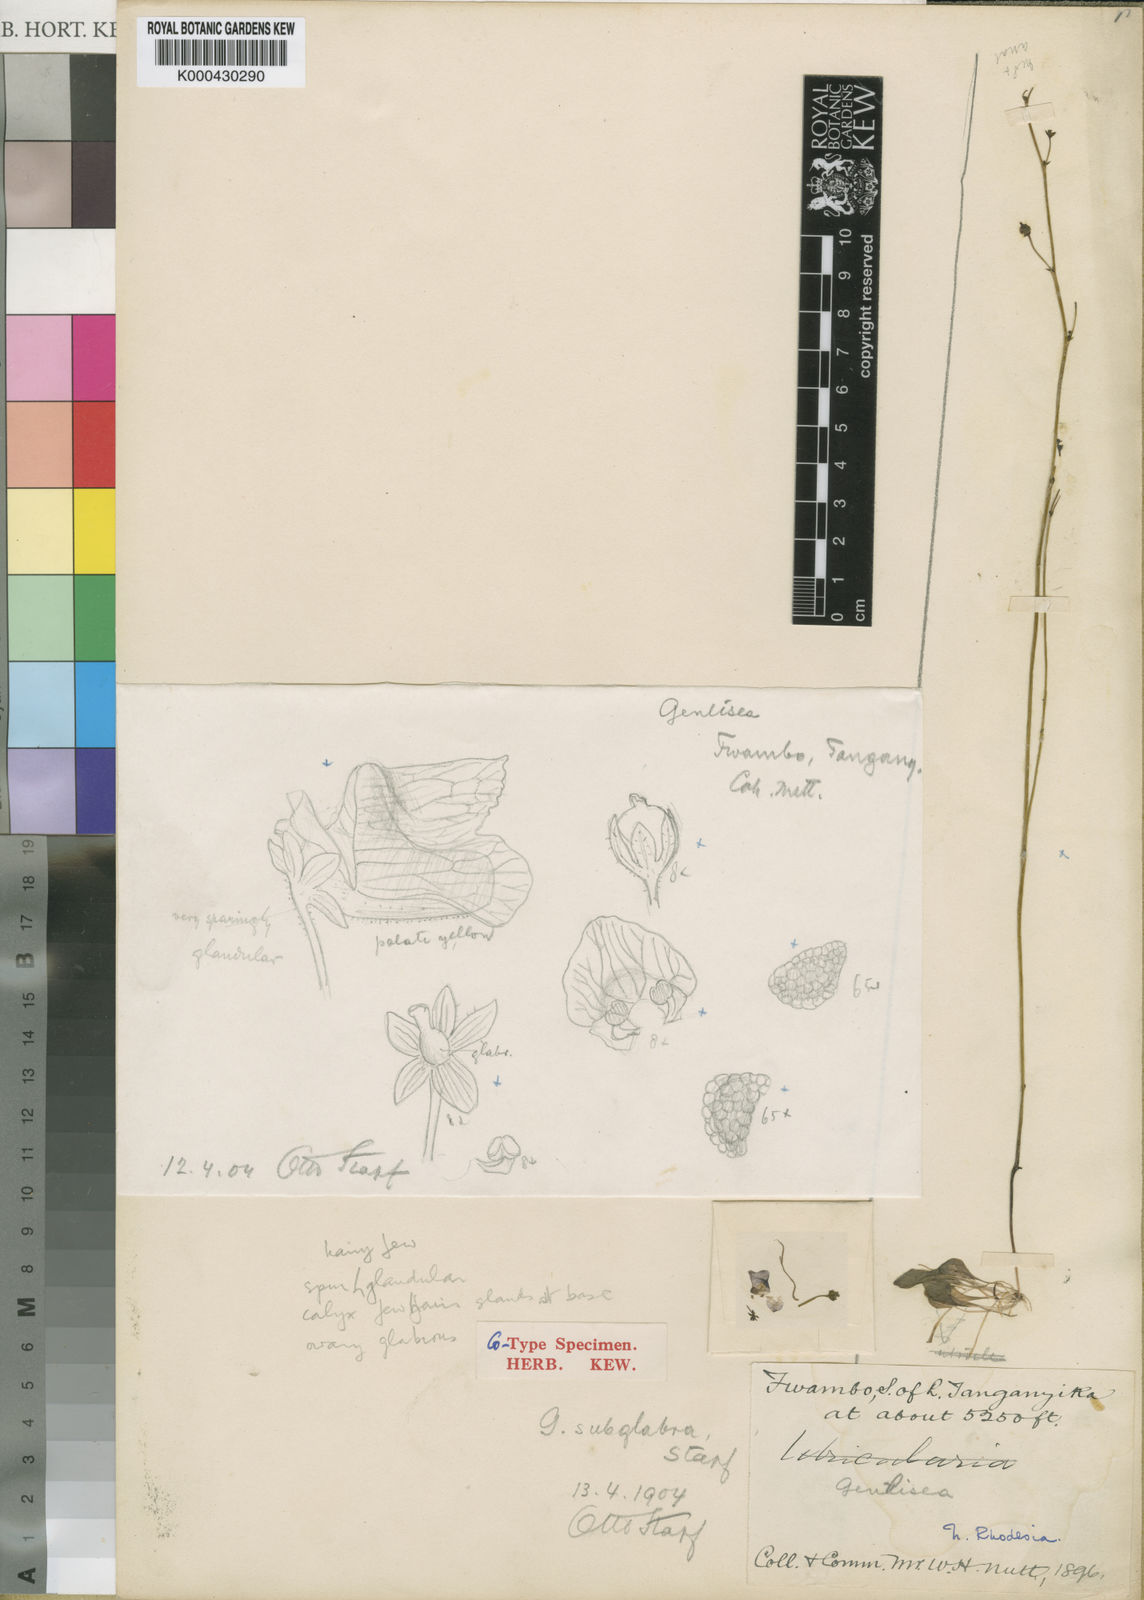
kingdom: Plantae
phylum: Tracheophyta
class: Magnoliopsida
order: Lamiales
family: Lentibulariaceae
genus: Genlisea
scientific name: Genlisea subglabra
